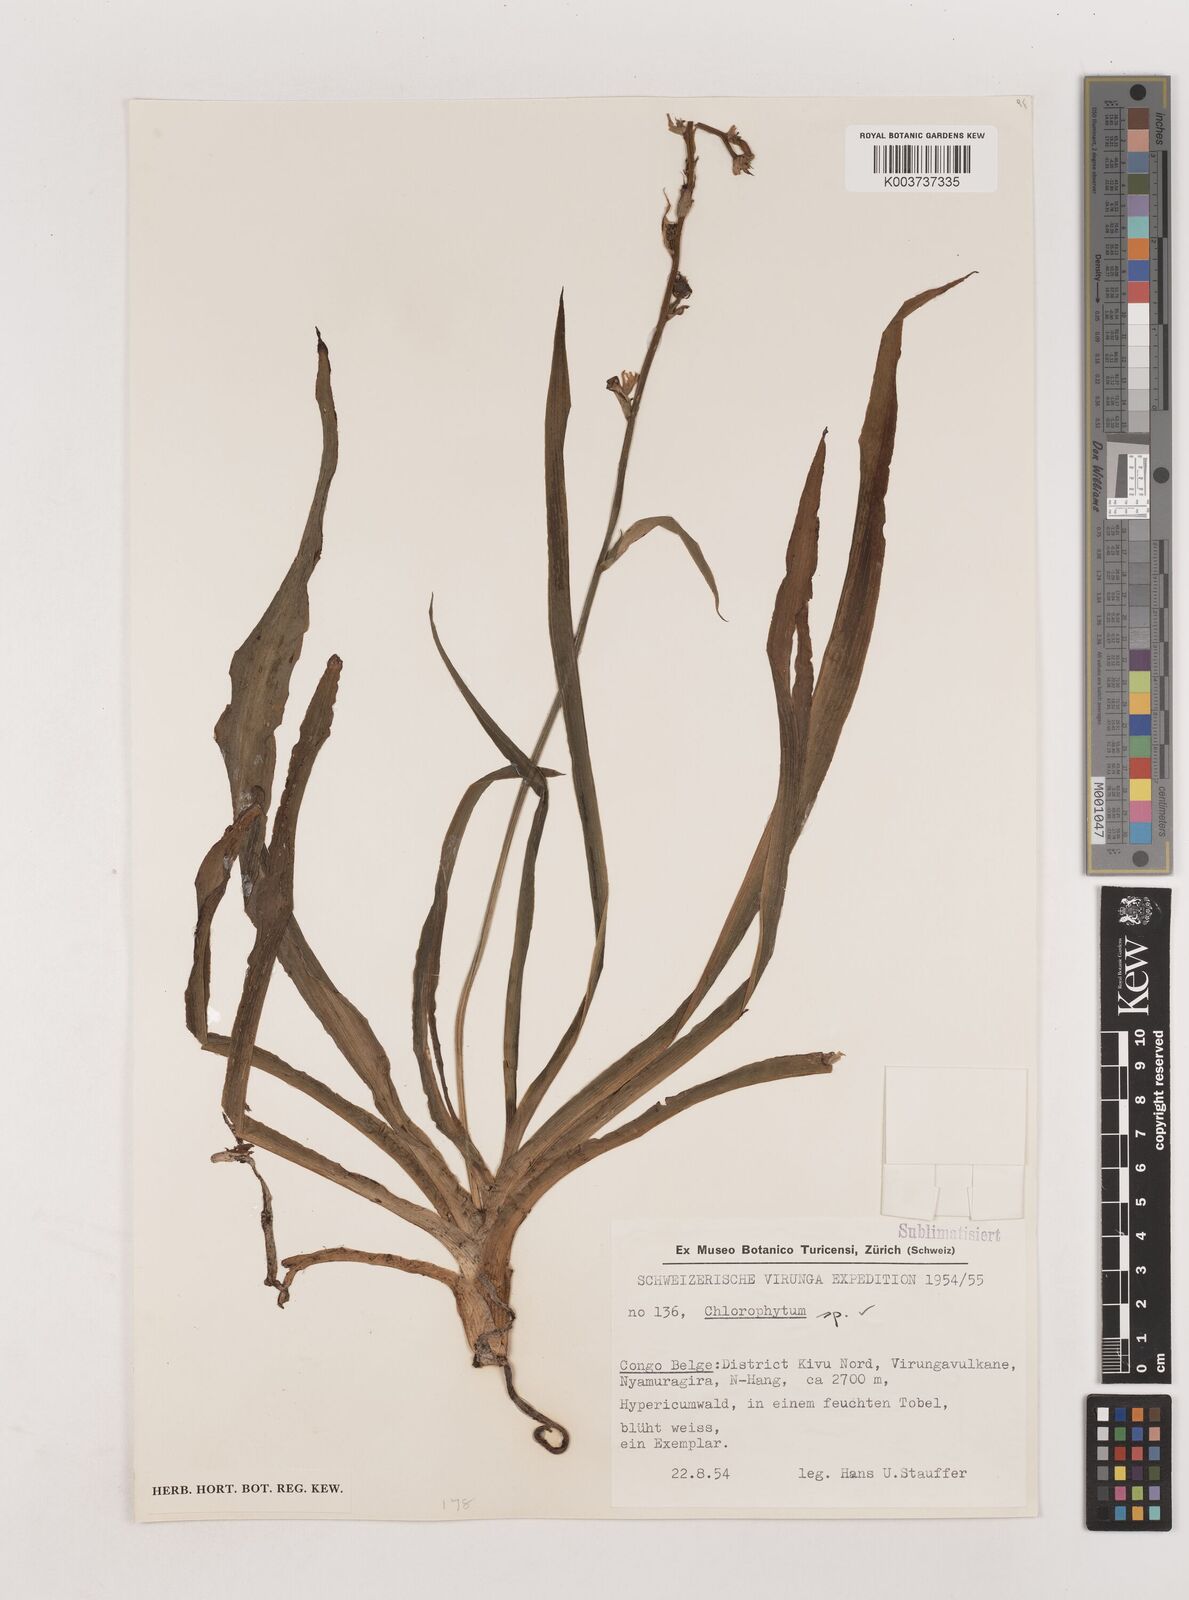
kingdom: Plantae
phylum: Tracheophyta
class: Liliopsida
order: Asparagales
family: Asparagaceae
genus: Chlorophytum
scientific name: Chlorophytum
